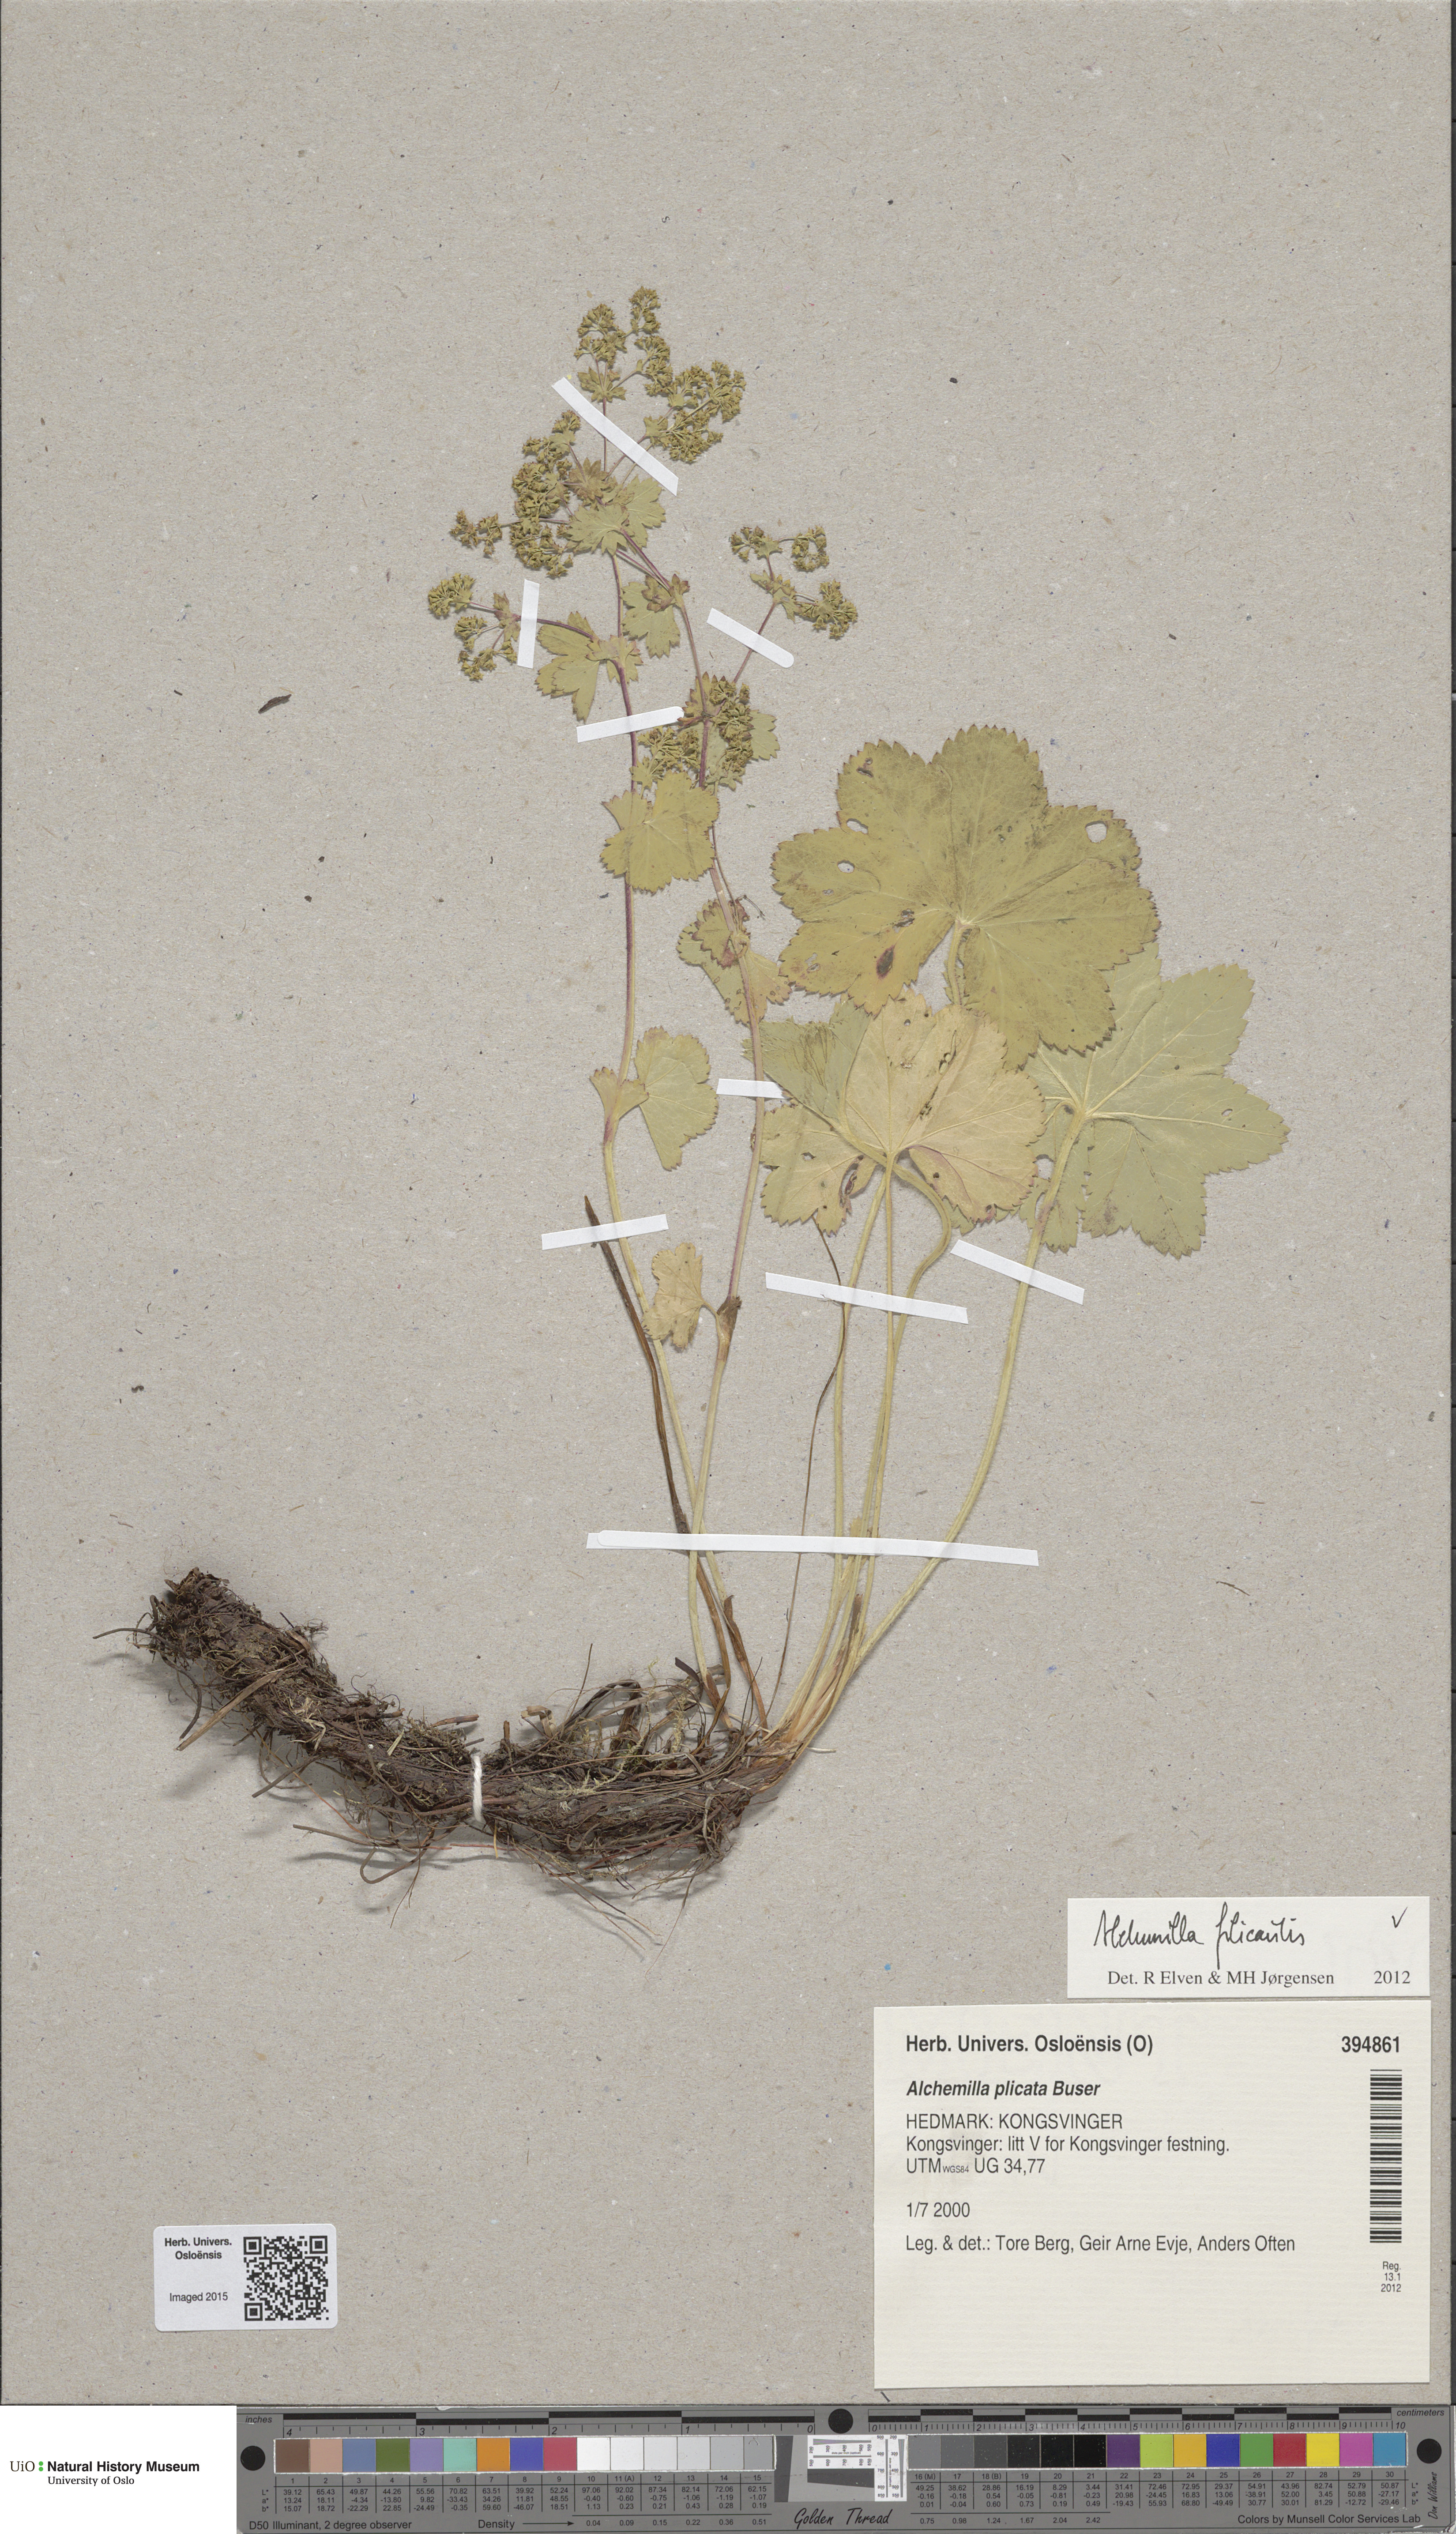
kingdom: Plantae
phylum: Tracheophyta
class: Magnoliopsida
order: Rosales
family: Rosaceae
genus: Alchemilla
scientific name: Alchemilla filicaulis
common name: Hairy lady's-mantle
